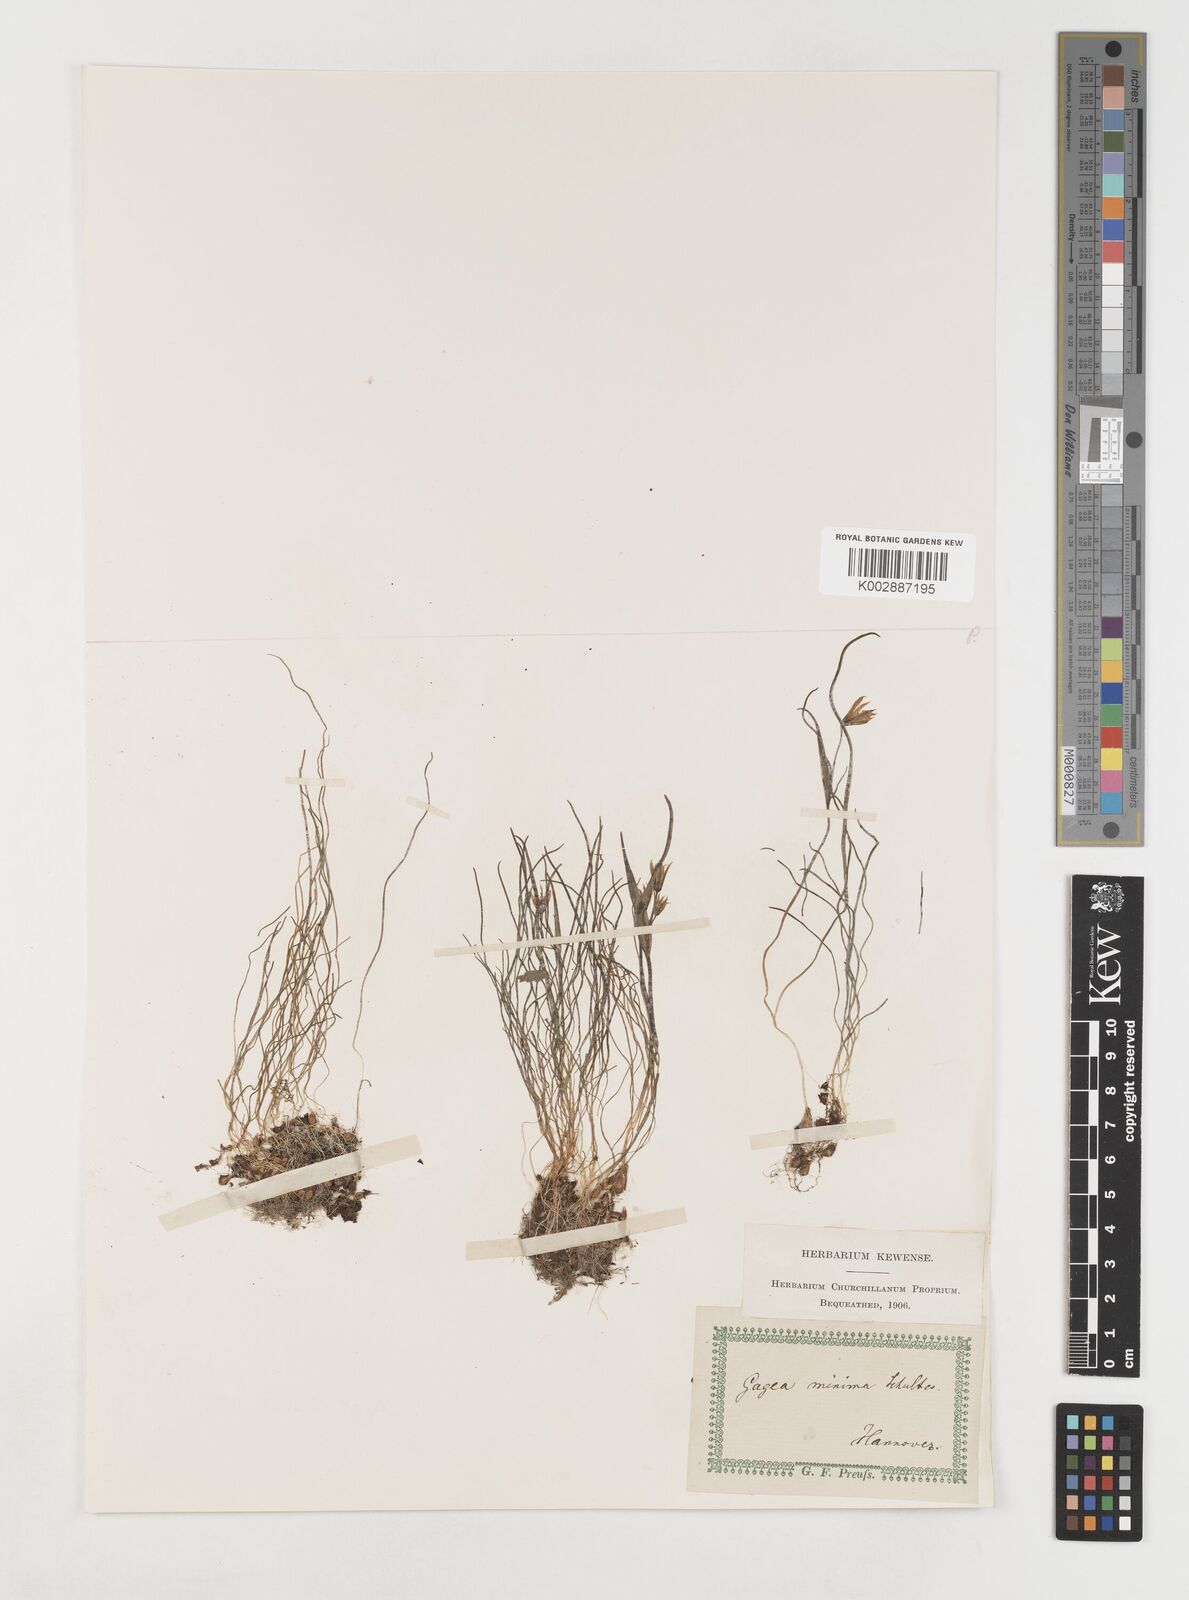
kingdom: Plantae
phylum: Tracheophyta
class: Liliopsida
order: Liliales
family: Liliaceae
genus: Gagea
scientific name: Gagea minima
